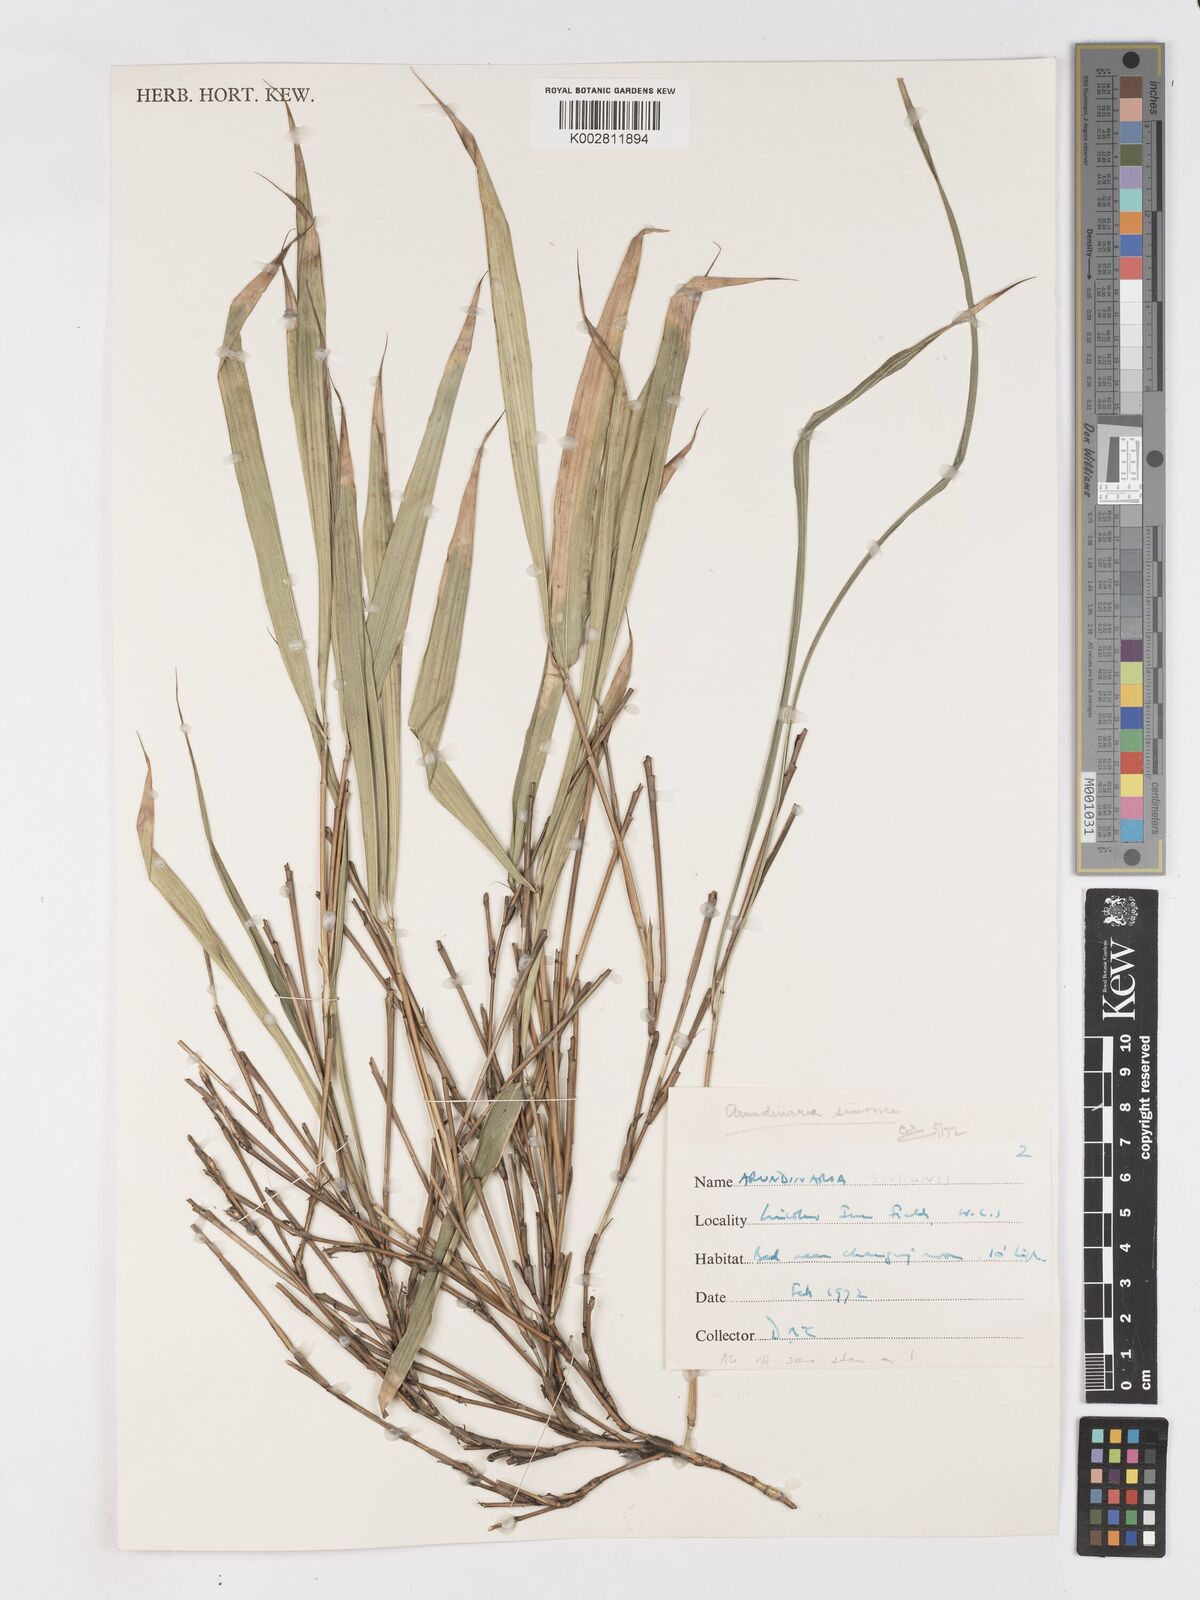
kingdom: Plantae
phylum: Tracheophyta
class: Liliopsida
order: Poales
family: Poaceae
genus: Pleioblastus
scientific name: Pleioblastus simonii
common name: Simon bamboo
